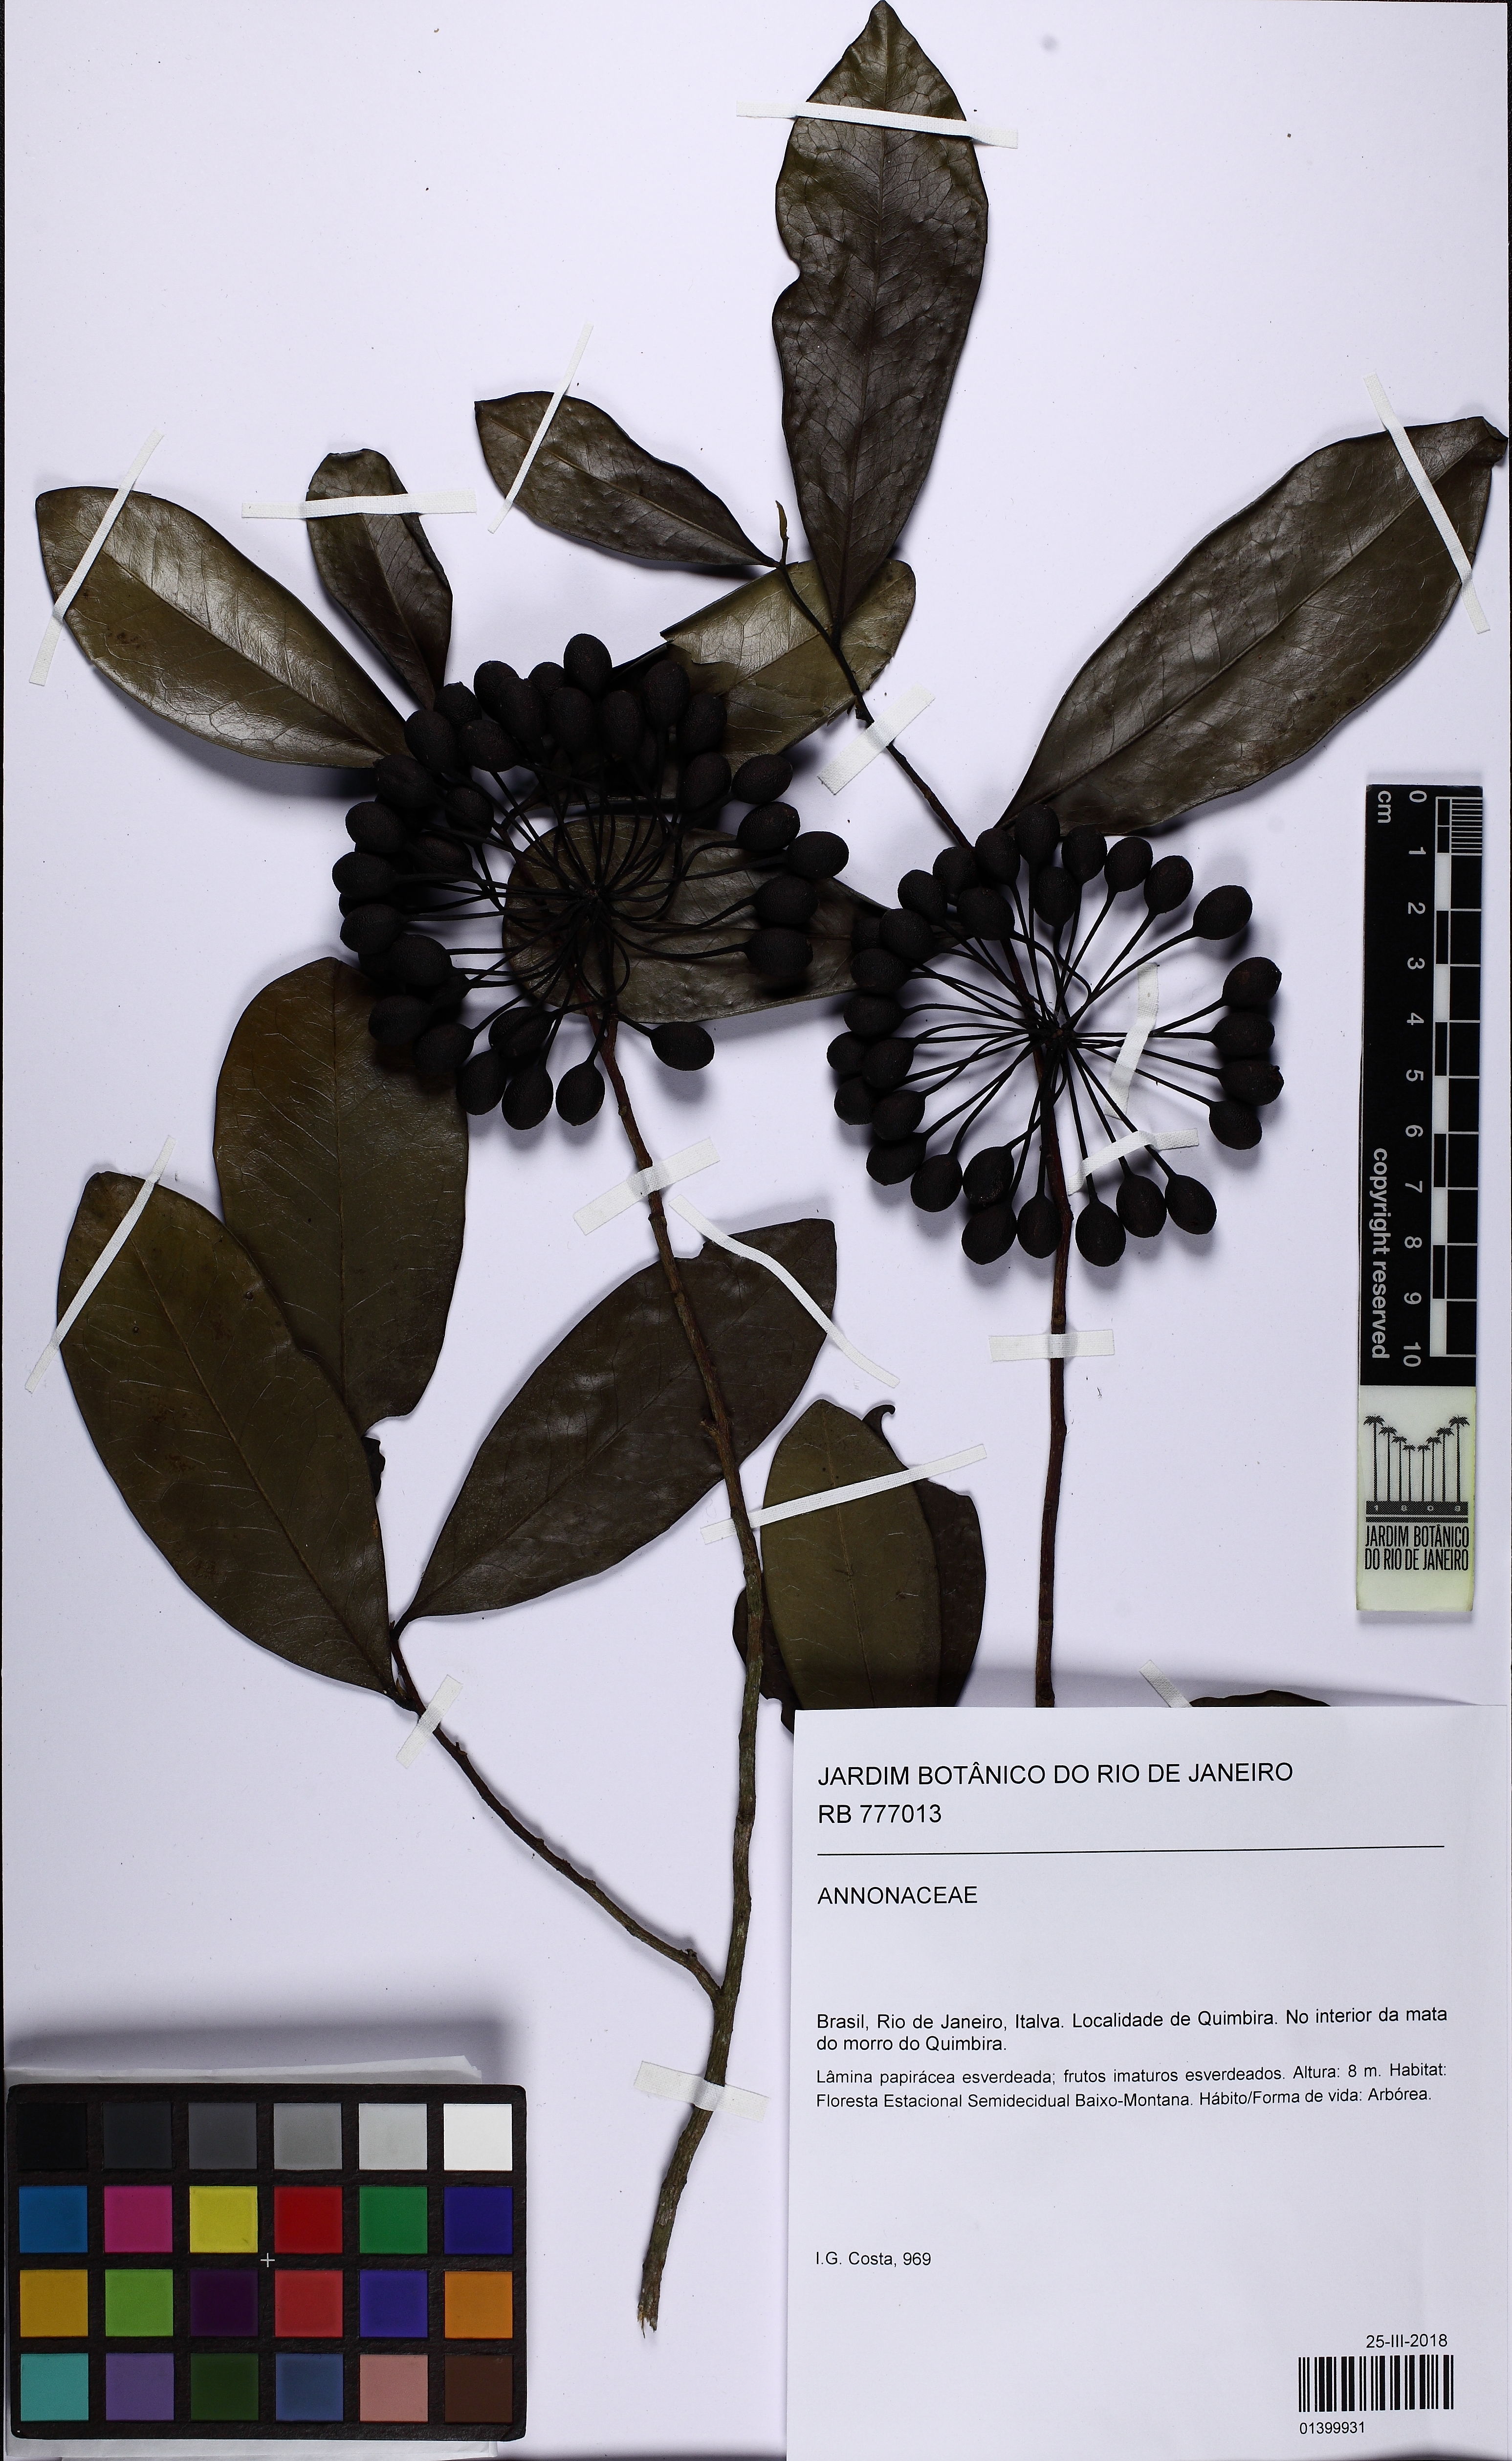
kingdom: Plantae
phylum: Tracheophyta
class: Magnoliopsida
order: Magnoliales
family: Annonaceae
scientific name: Annonaceae
